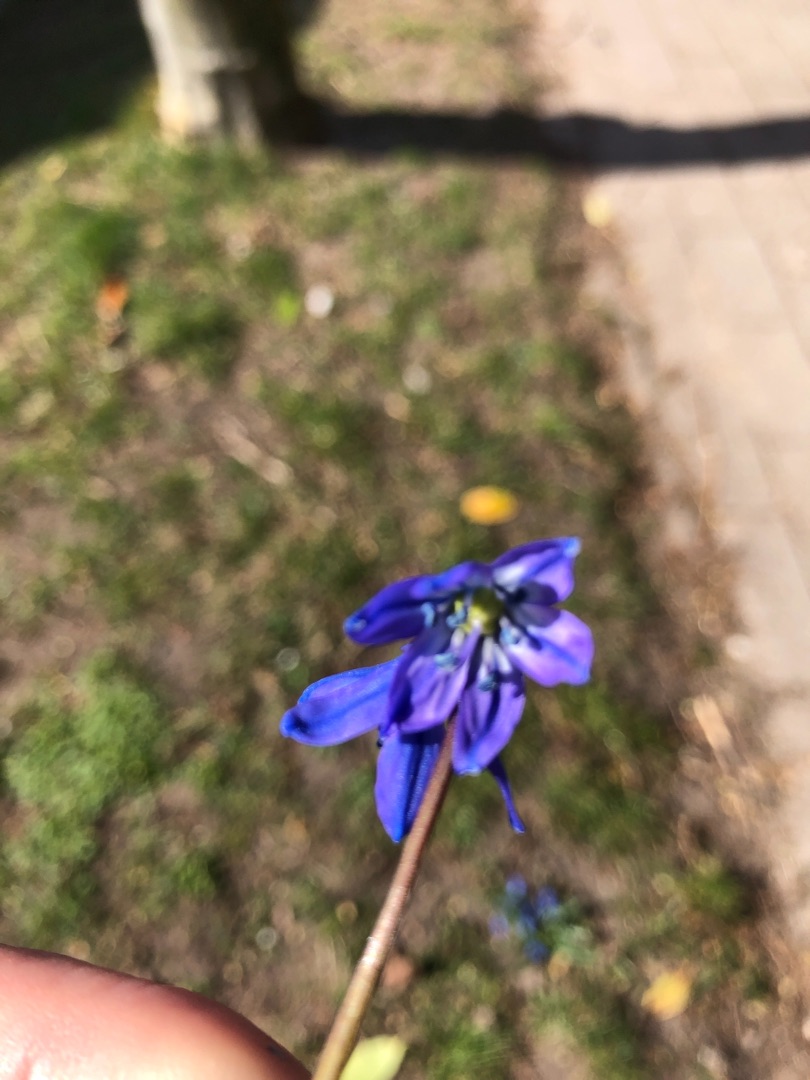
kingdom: Plantae
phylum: Tracheophyta
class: Liliopsida
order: Asparagales
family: Asparagaceae
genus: Scilla
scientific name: Scilla siberica
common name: Russisk skilla
